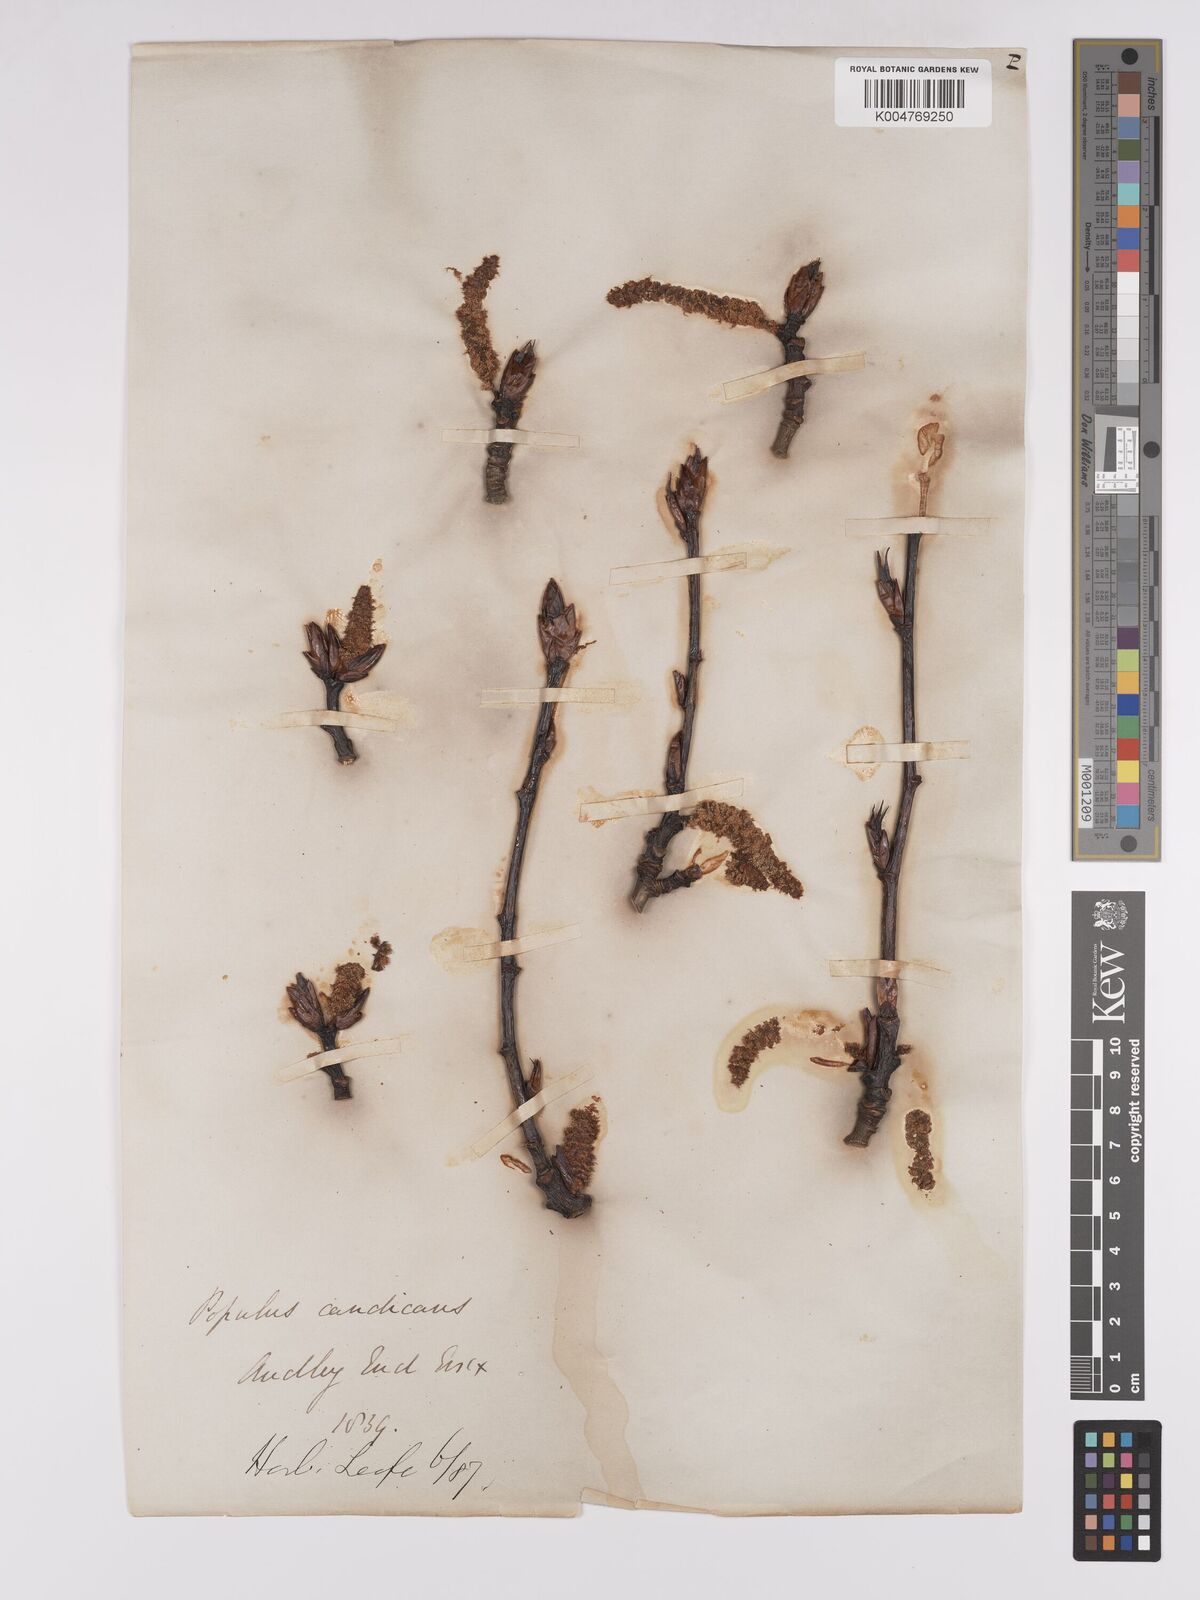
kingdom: Plantae
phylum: Tracheophyta
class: Magnoliopsida
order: Malpighiales
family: Salicaceae
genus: Populus
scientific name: Populus balsamifera
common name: Balsam poplar
